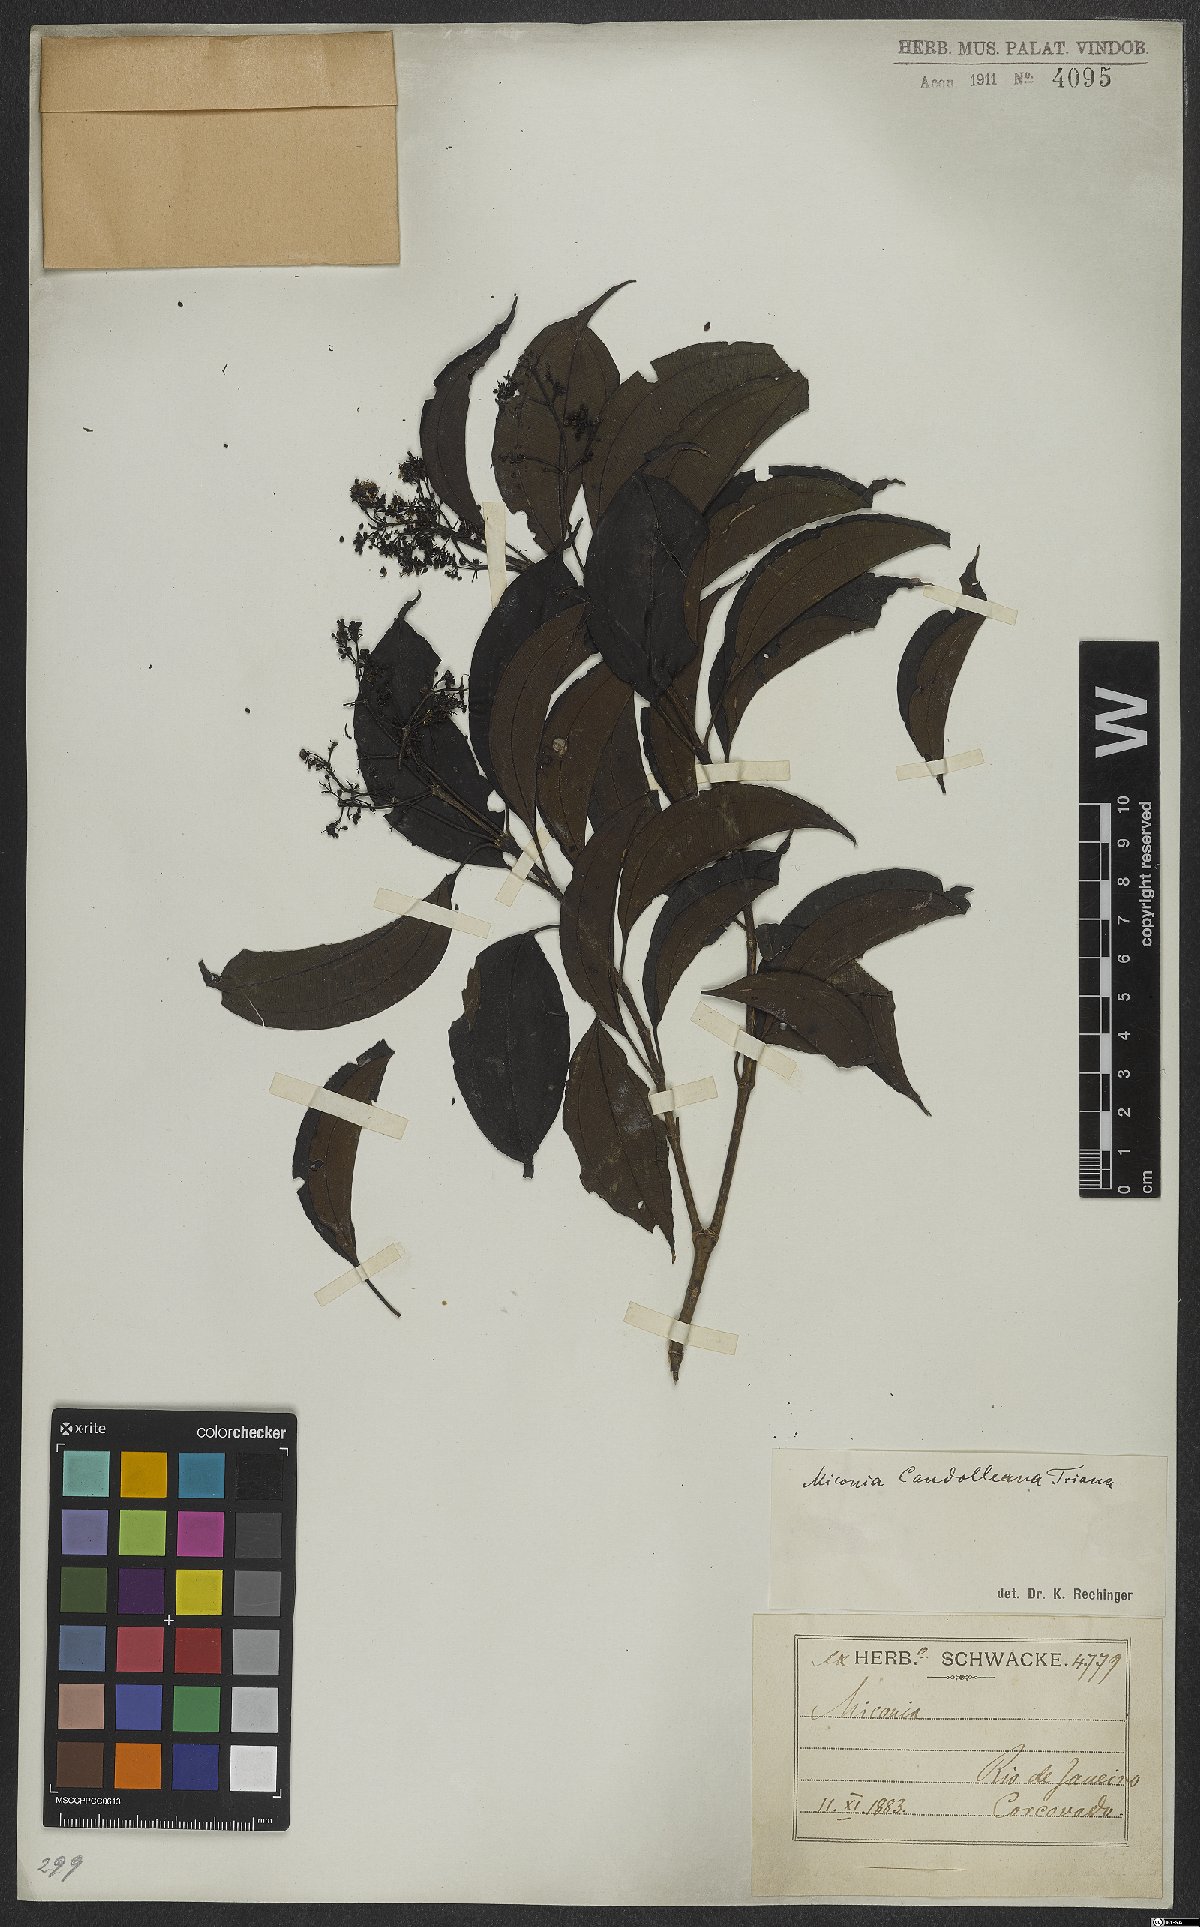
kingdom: Plantae
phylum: Tracheophyta
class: Magnoliopsida
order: Myrtales
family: Melastomataceae
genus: Miconia
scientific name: Miconia cinnamomifolia
